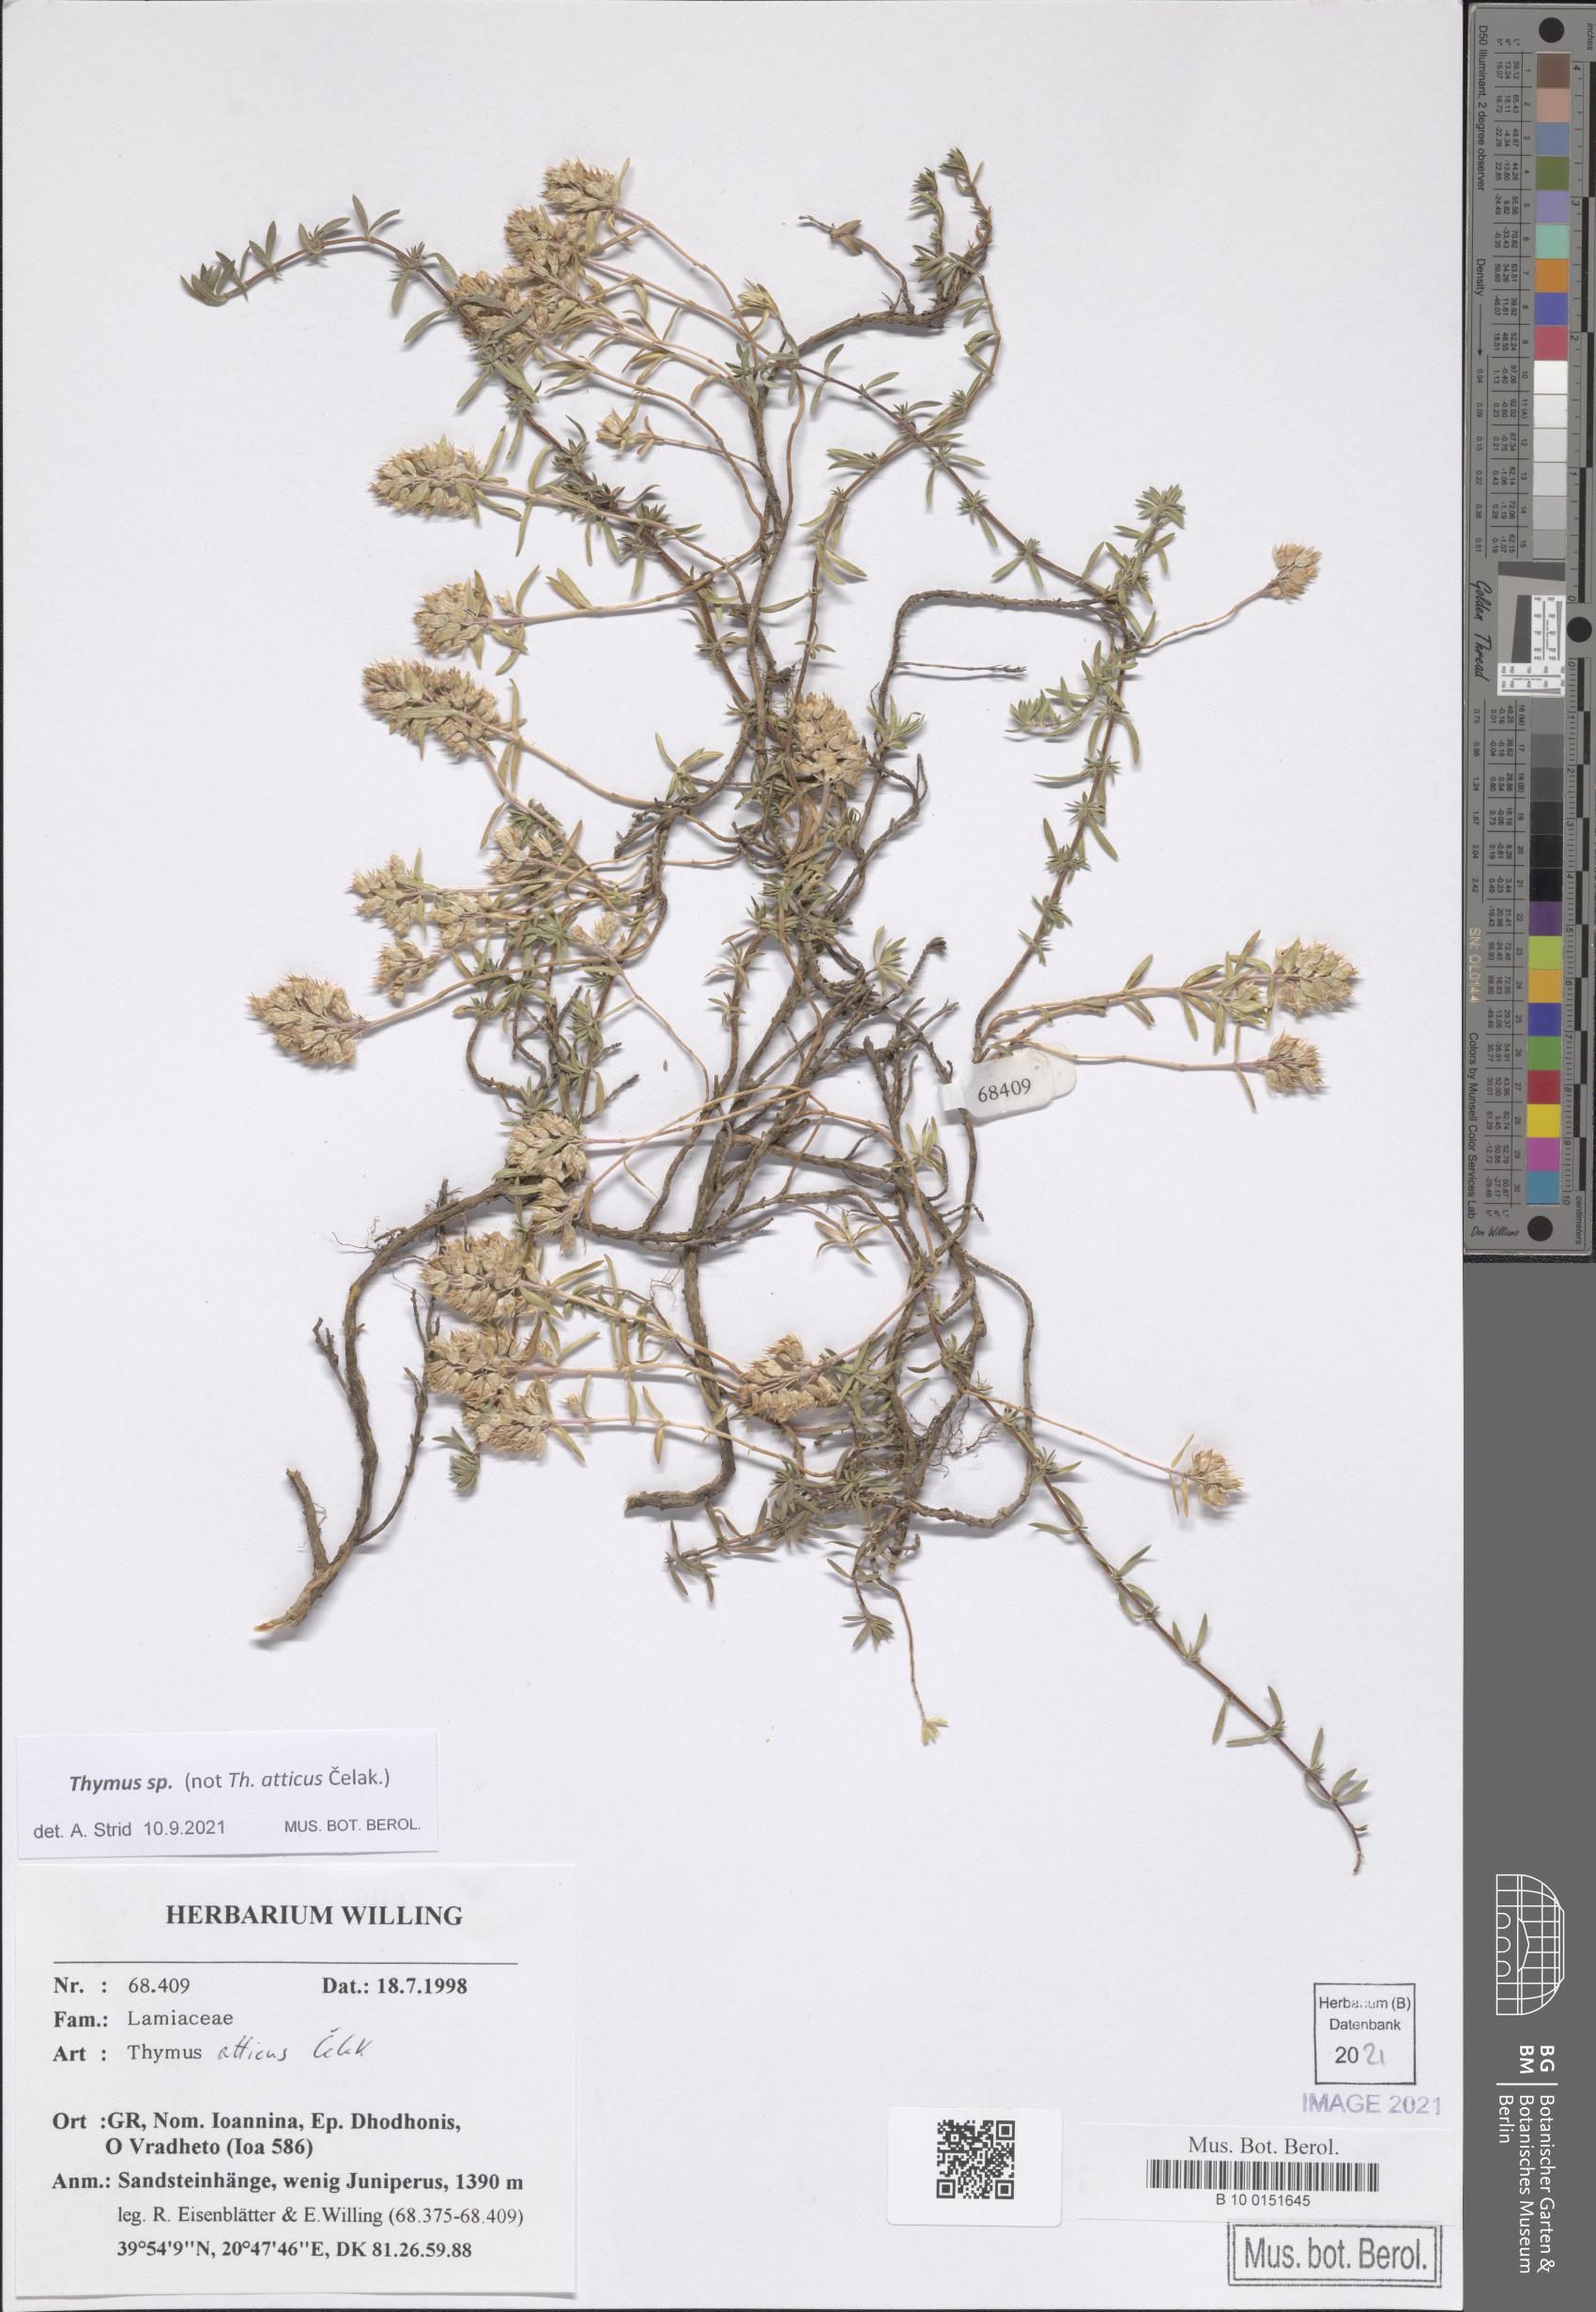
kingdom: Plantae
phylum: Tracheophyta
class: Magnoliopsida
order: Lamiales
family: Lamiaceae
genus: Thymus
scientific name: Thymus
